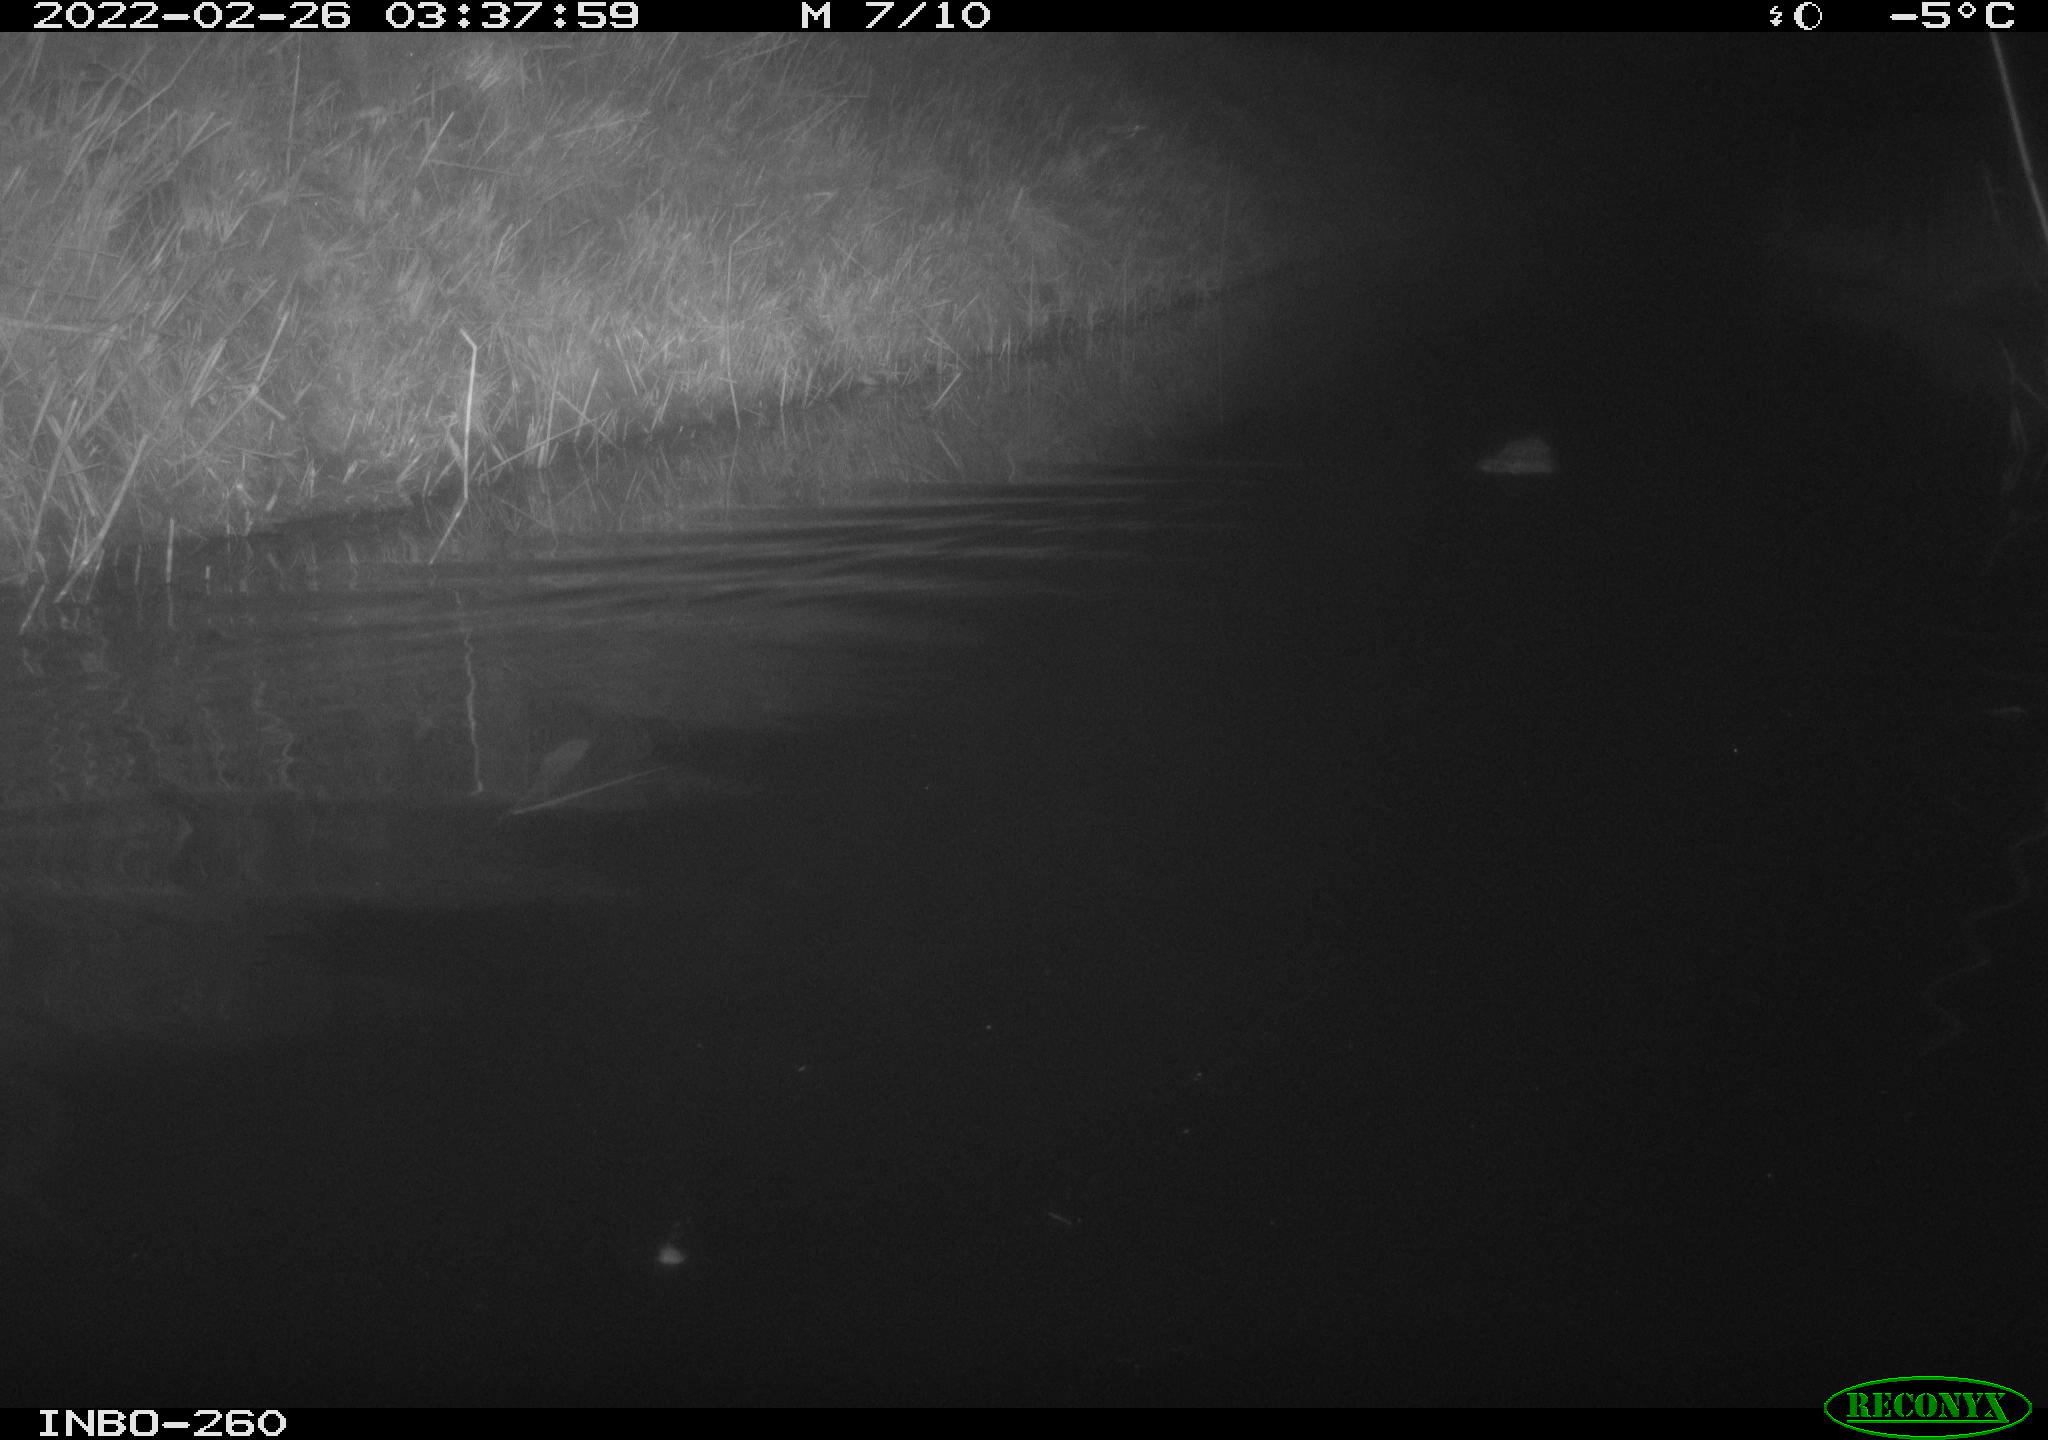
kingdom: Animalia
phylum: Chordata
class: Mammalia
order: Rodentia
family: Cricetidae
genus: Ondatra
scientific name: Ondatra zibethicus
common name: Muskrat
